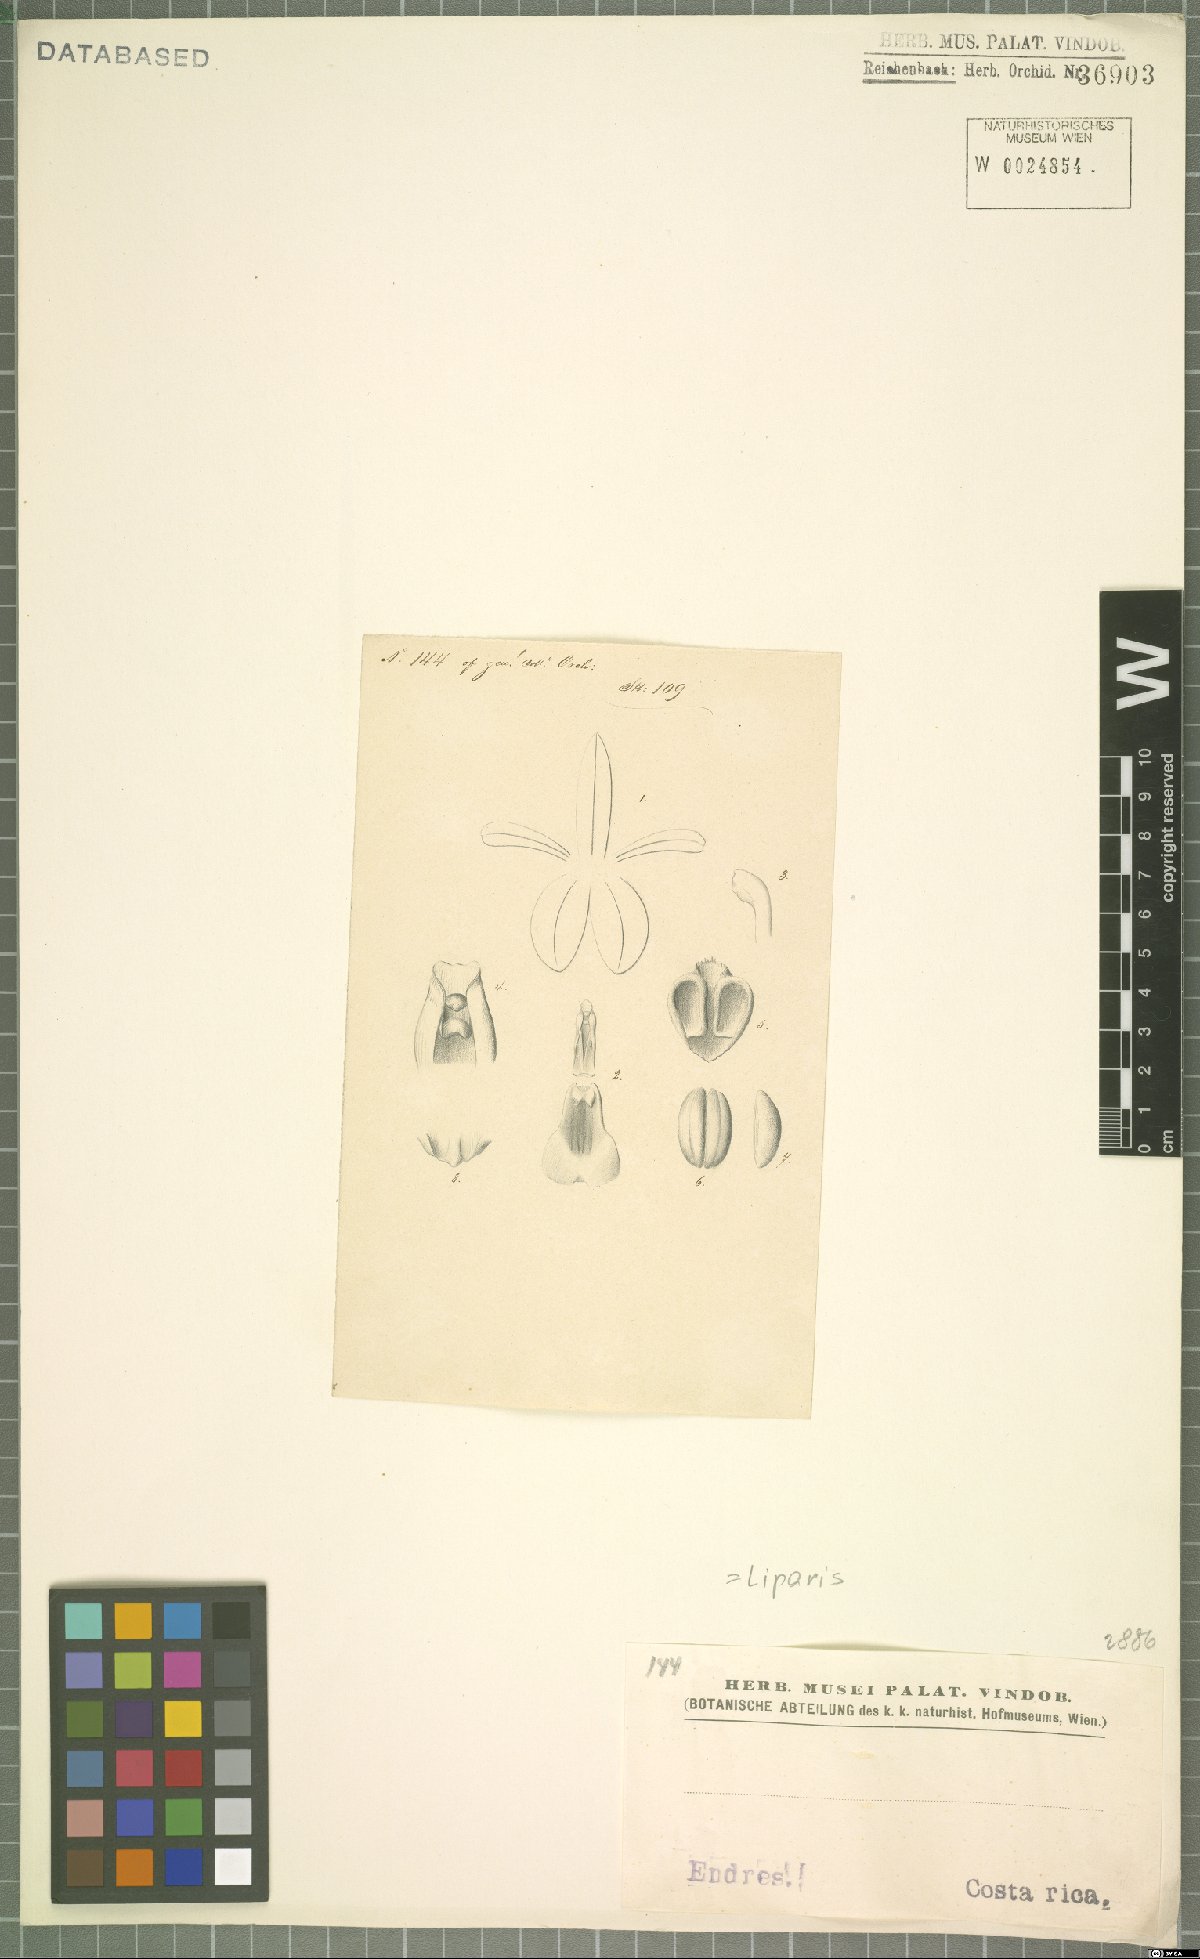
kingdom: Plantae
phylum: Tracheophyta
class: Liliopsida
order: Asparagales
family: Orchidaceae
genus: Liparis
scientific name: Liparis
